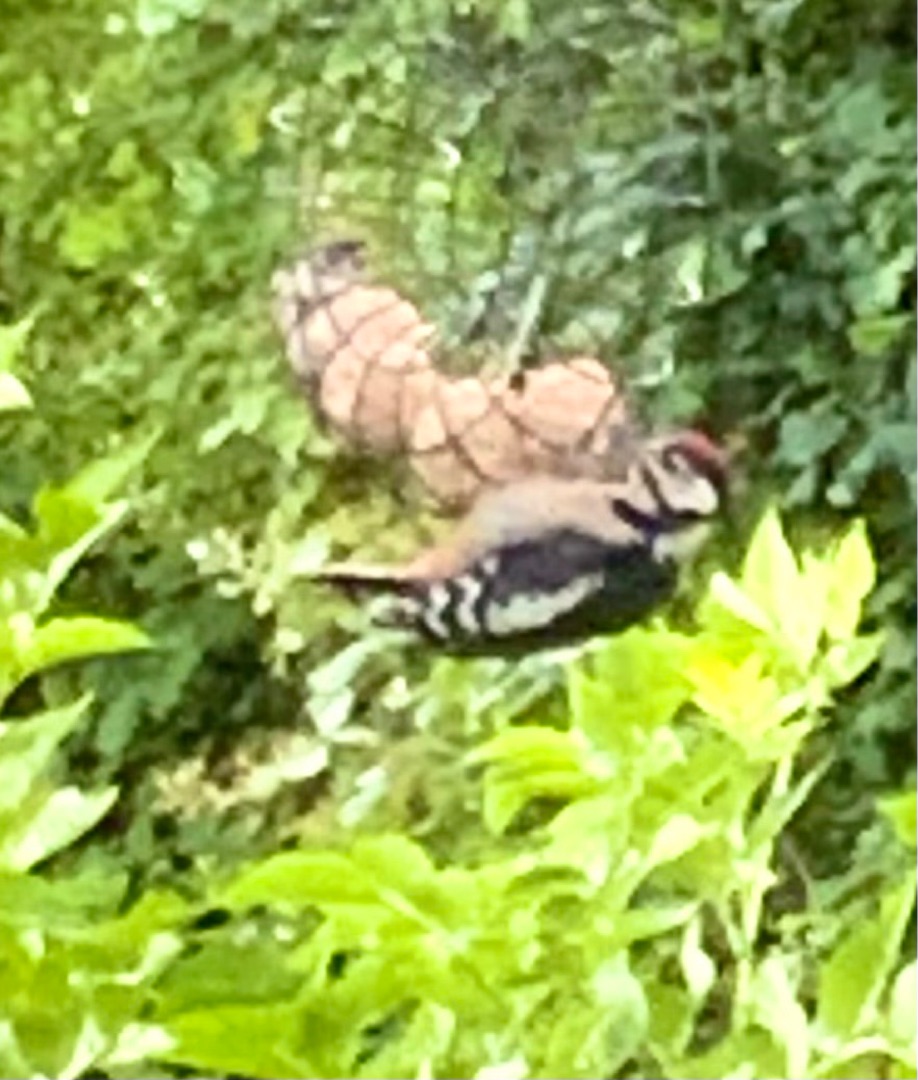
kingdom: Animalia
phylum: Chordata
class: Aves
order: Piciformes
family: Picidae
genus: Dendrocopos
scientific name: Dendrocopos major
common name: Stor flagspætte
